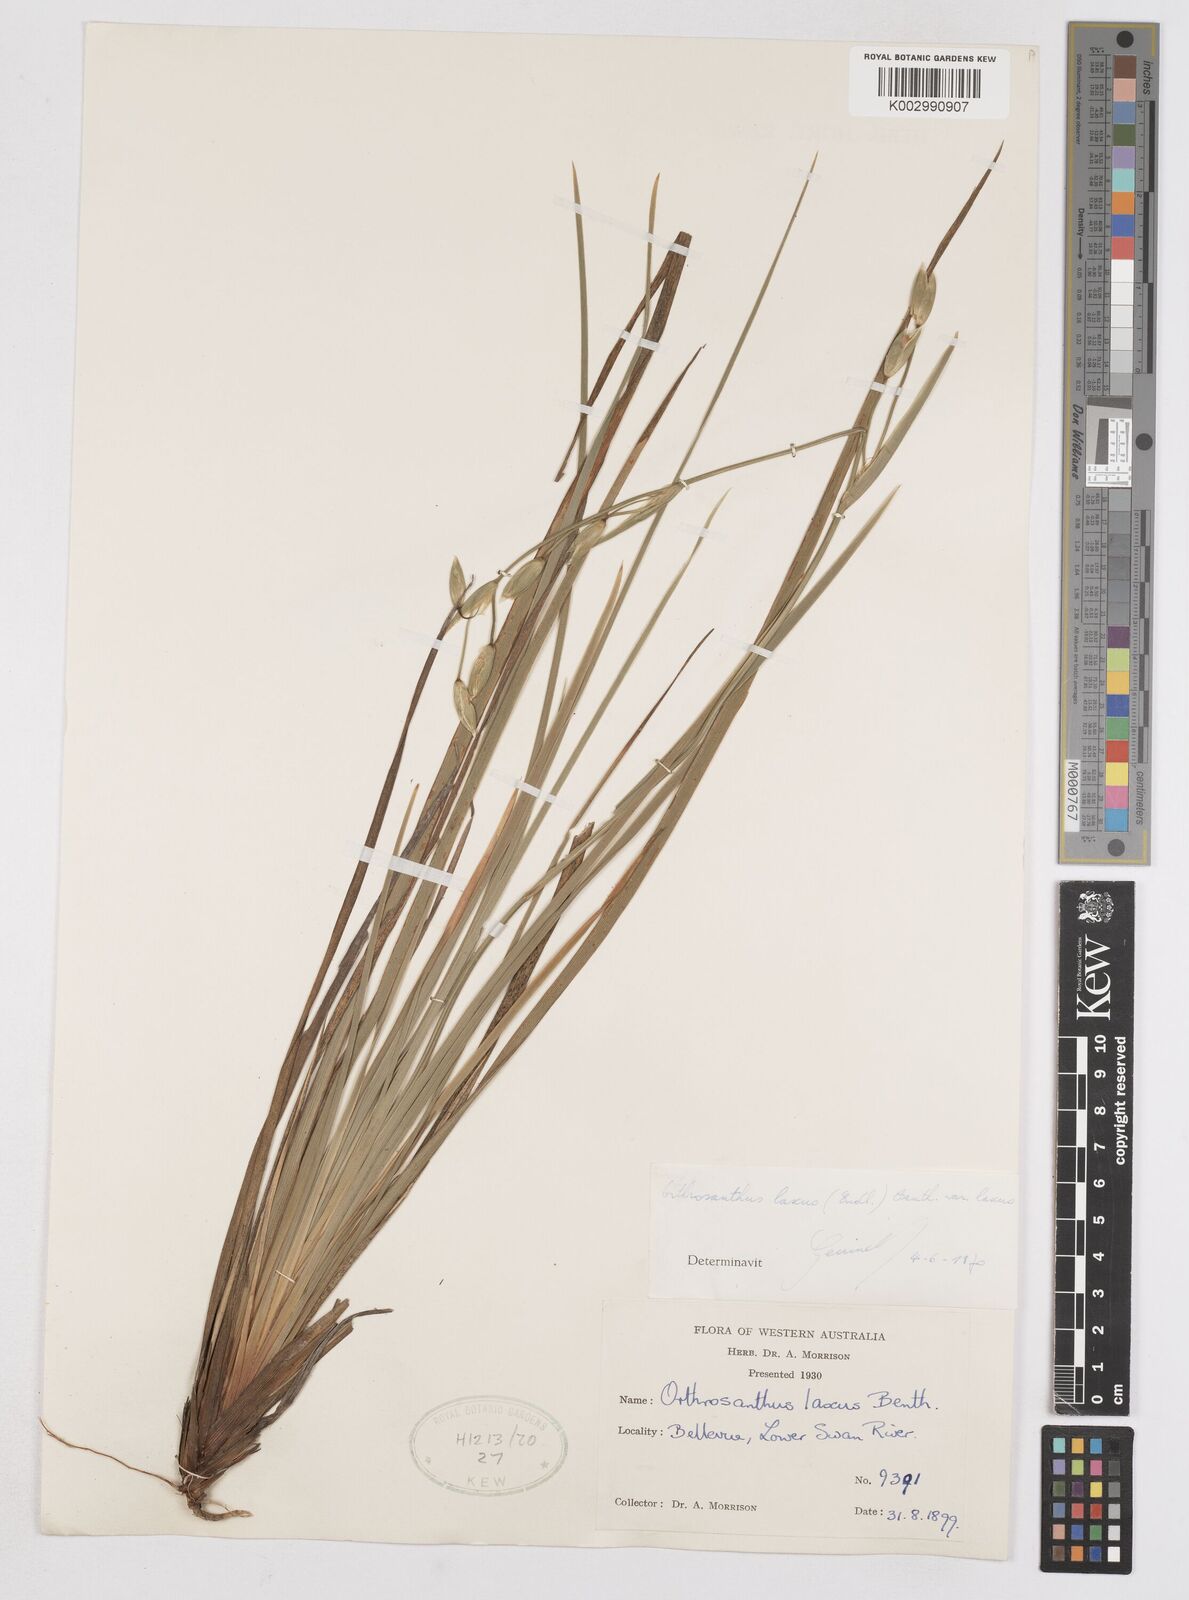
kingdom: Plantae
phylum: Tracheophyta
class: Liliopsida
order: Asparagales
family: Iridaceae
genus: Orthrosanthus
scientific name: Orthrosanthus laxus
